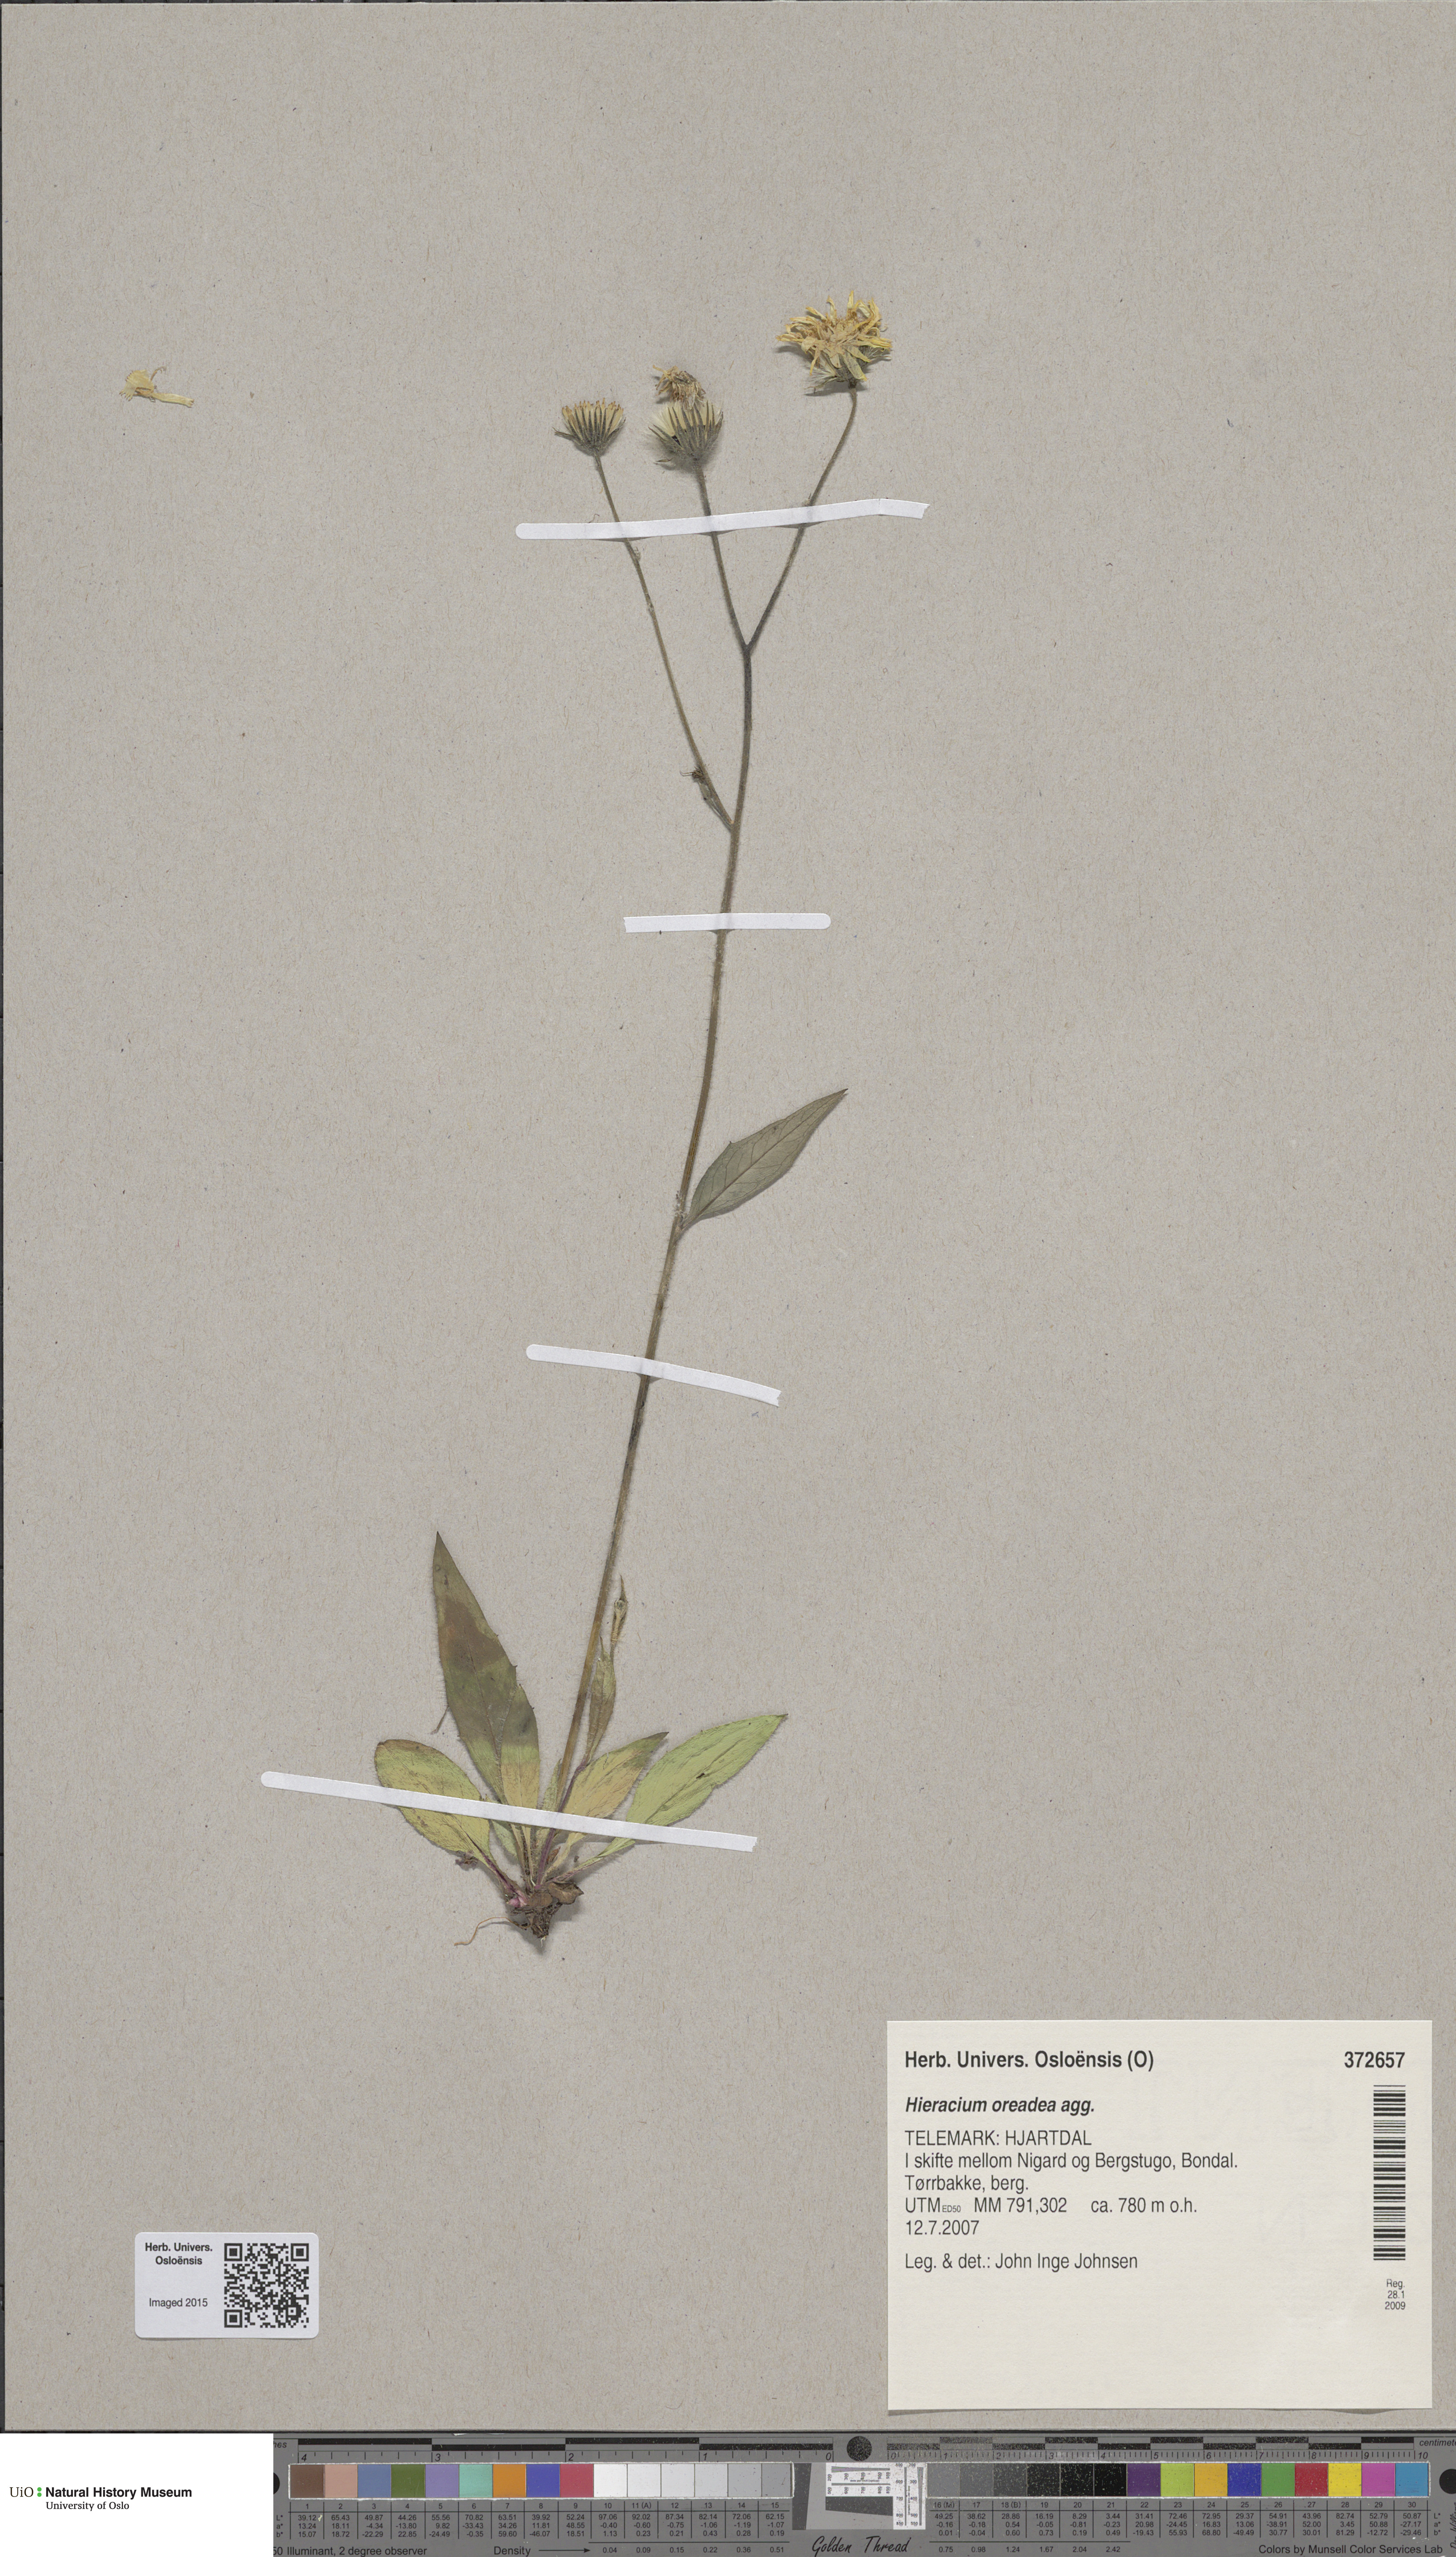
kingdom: Plantae
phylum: Tracheophyta
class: Magnoliopsida
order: Asterales
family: Asteraceae
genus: Hieracium
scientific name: Hieracium
